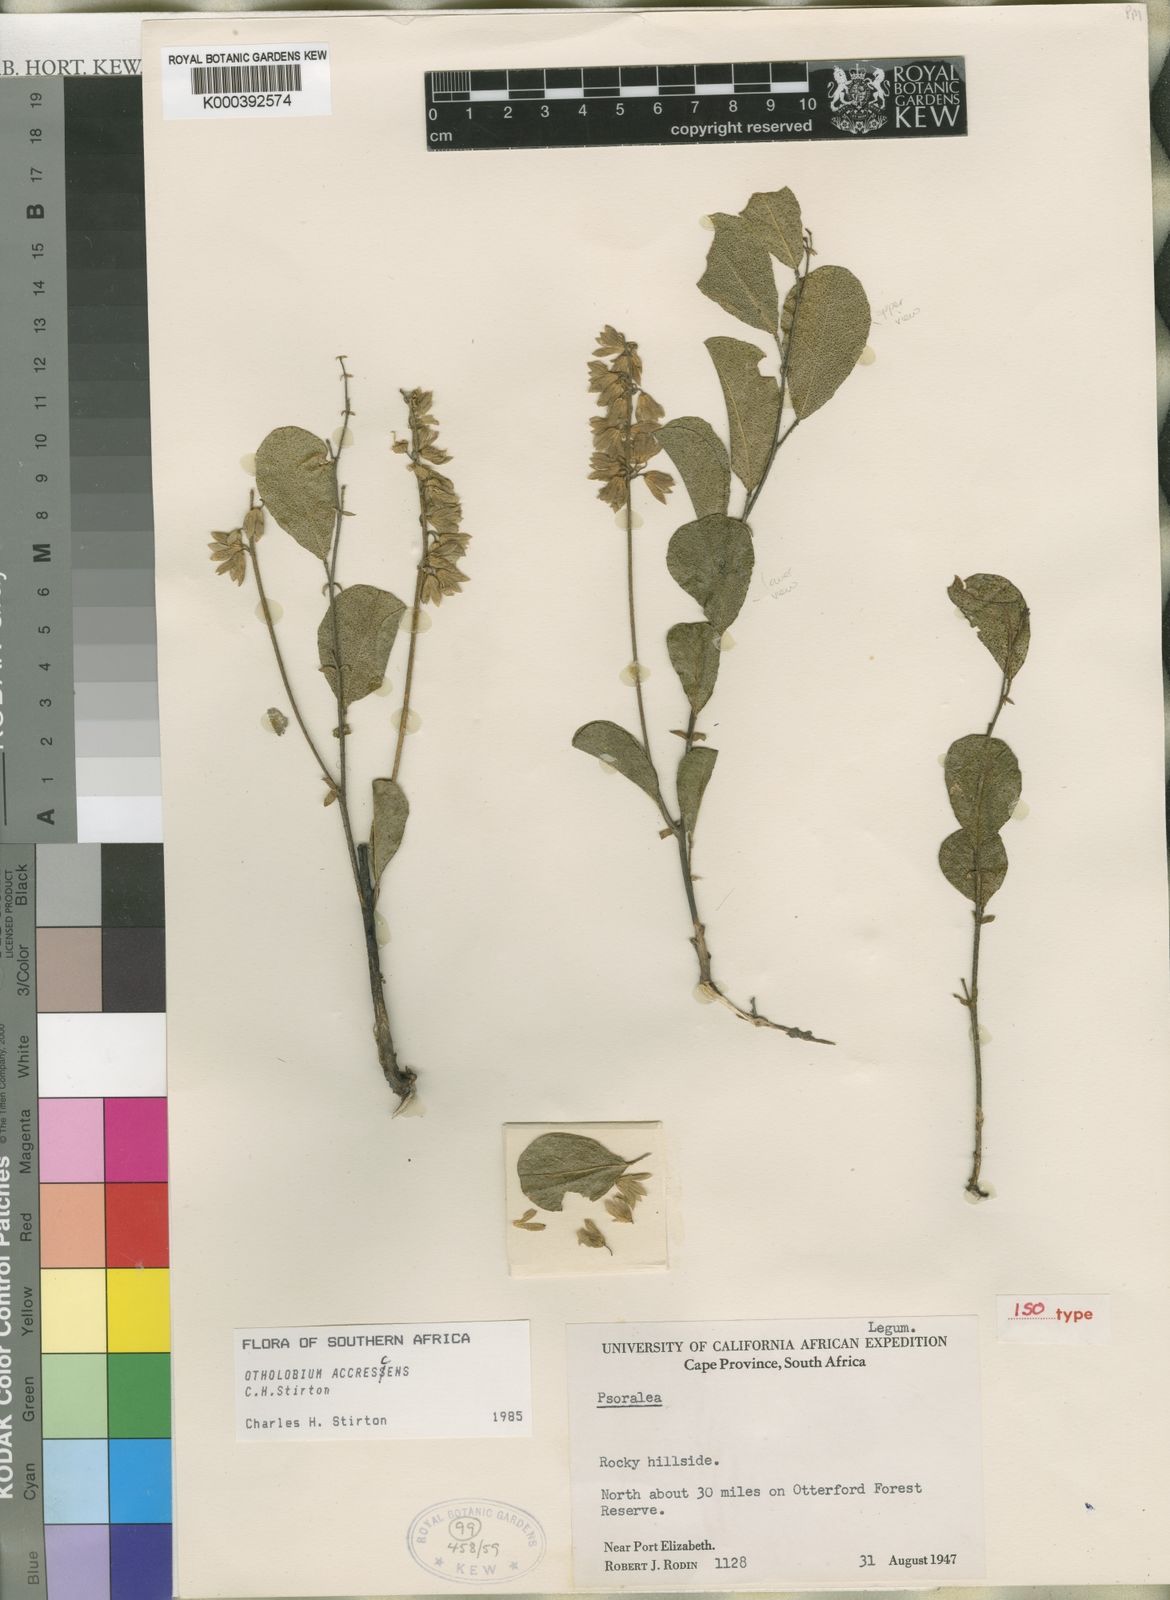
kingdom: Plantae
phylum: Tracheophyta
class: Magnoliopsida
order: Fabales
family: Fabaceae
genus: Psoralea
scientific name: Psoralea accrescens
